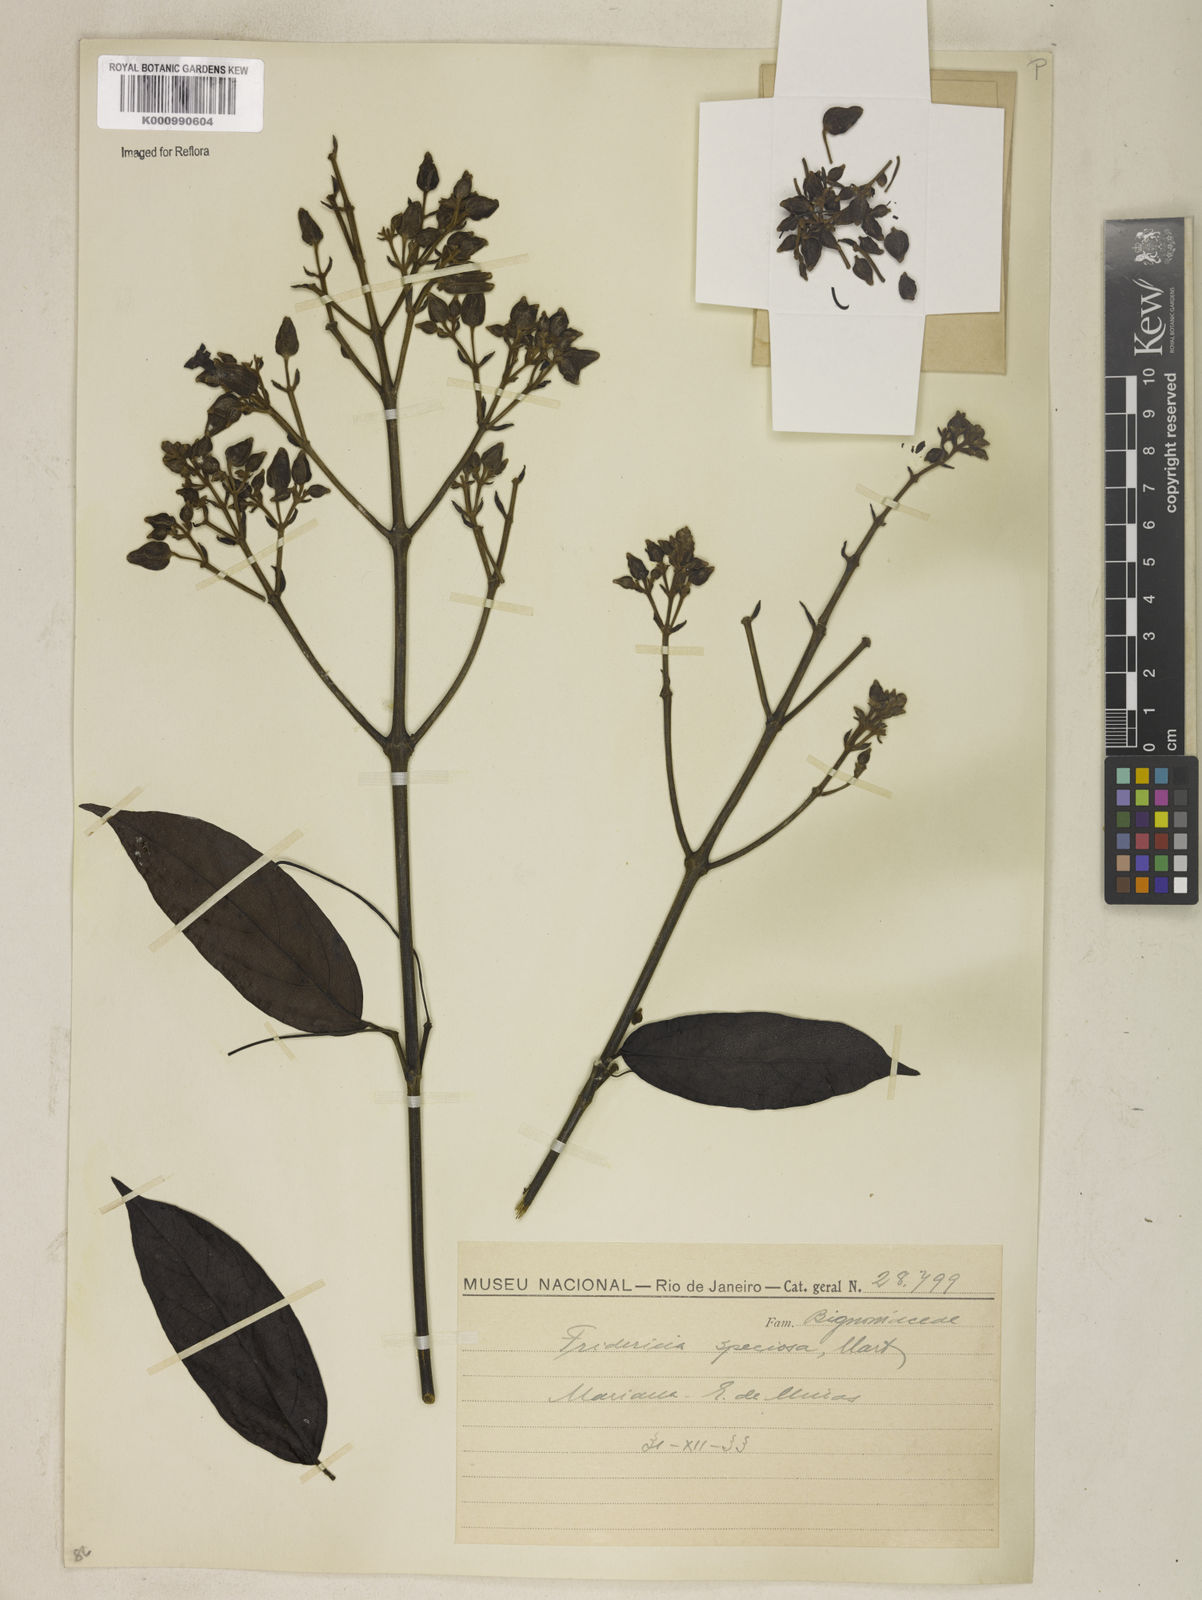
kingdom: Plantae
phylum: Tracheophyta
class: Magnoliopsida
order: Lamiales
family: Bignoniaceae
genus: Fridericia
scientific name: Fridericia speciosa
